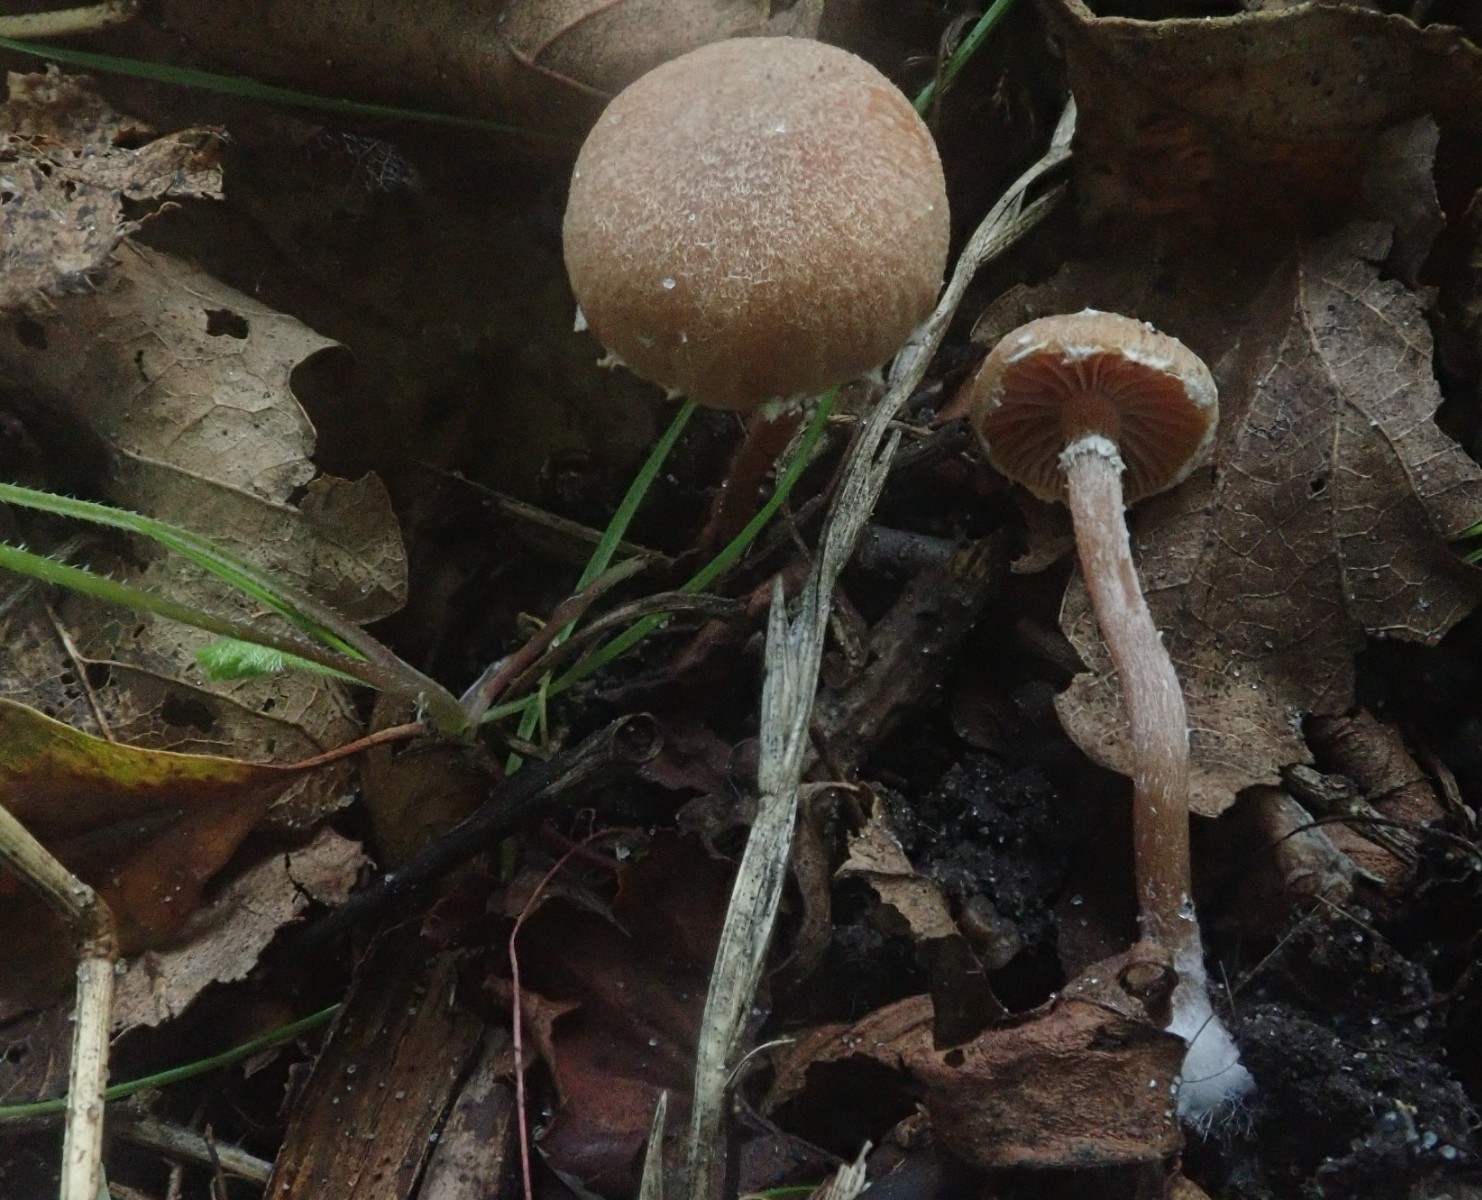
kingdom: Fungi
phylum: Basidiomycota
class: Agaricomycetes
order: Agaricales
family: Tubariaceae
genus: Tubaria
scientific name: Tubaria conspersa
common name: bleg fnughat
